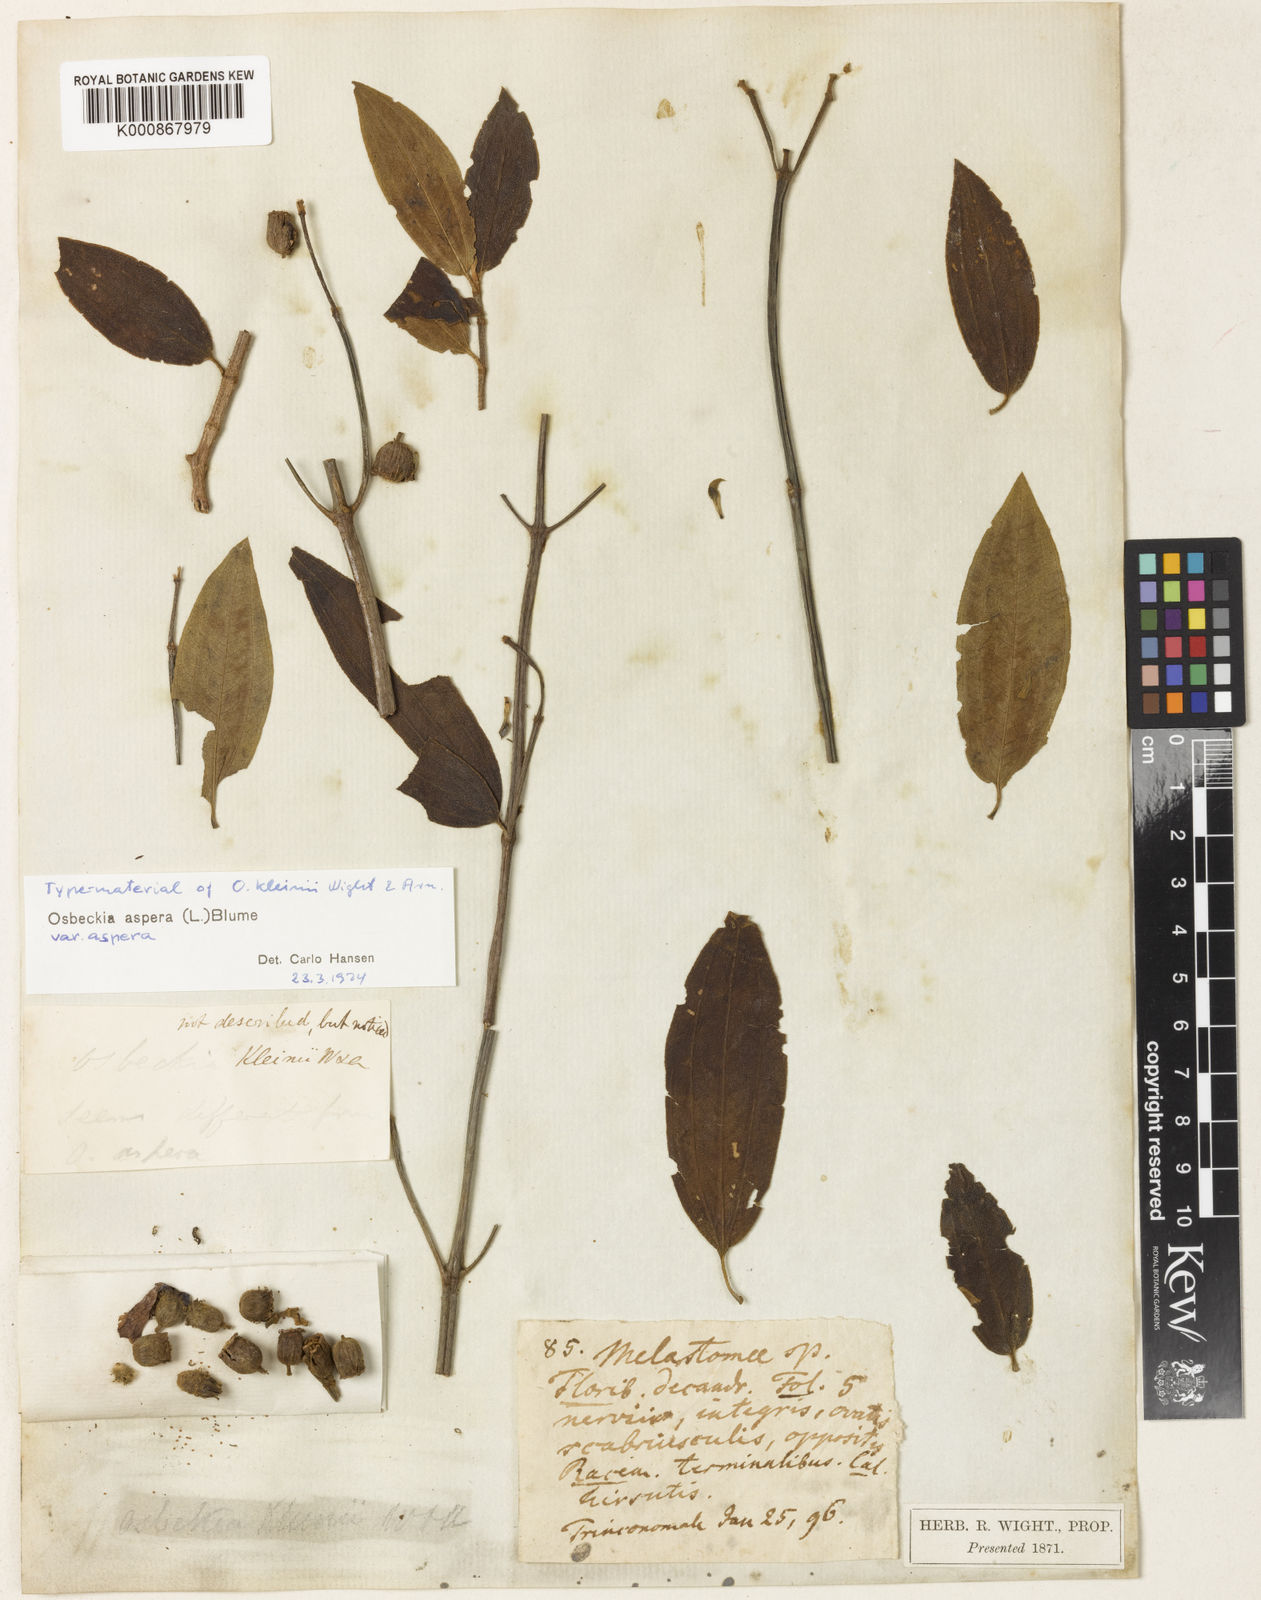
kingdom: Plantae
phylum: Tracheophyta
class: Magnoliopsida
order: Myrtales
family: Melastomataceae
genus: Osbeckia
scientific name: Osbeckia aspera
